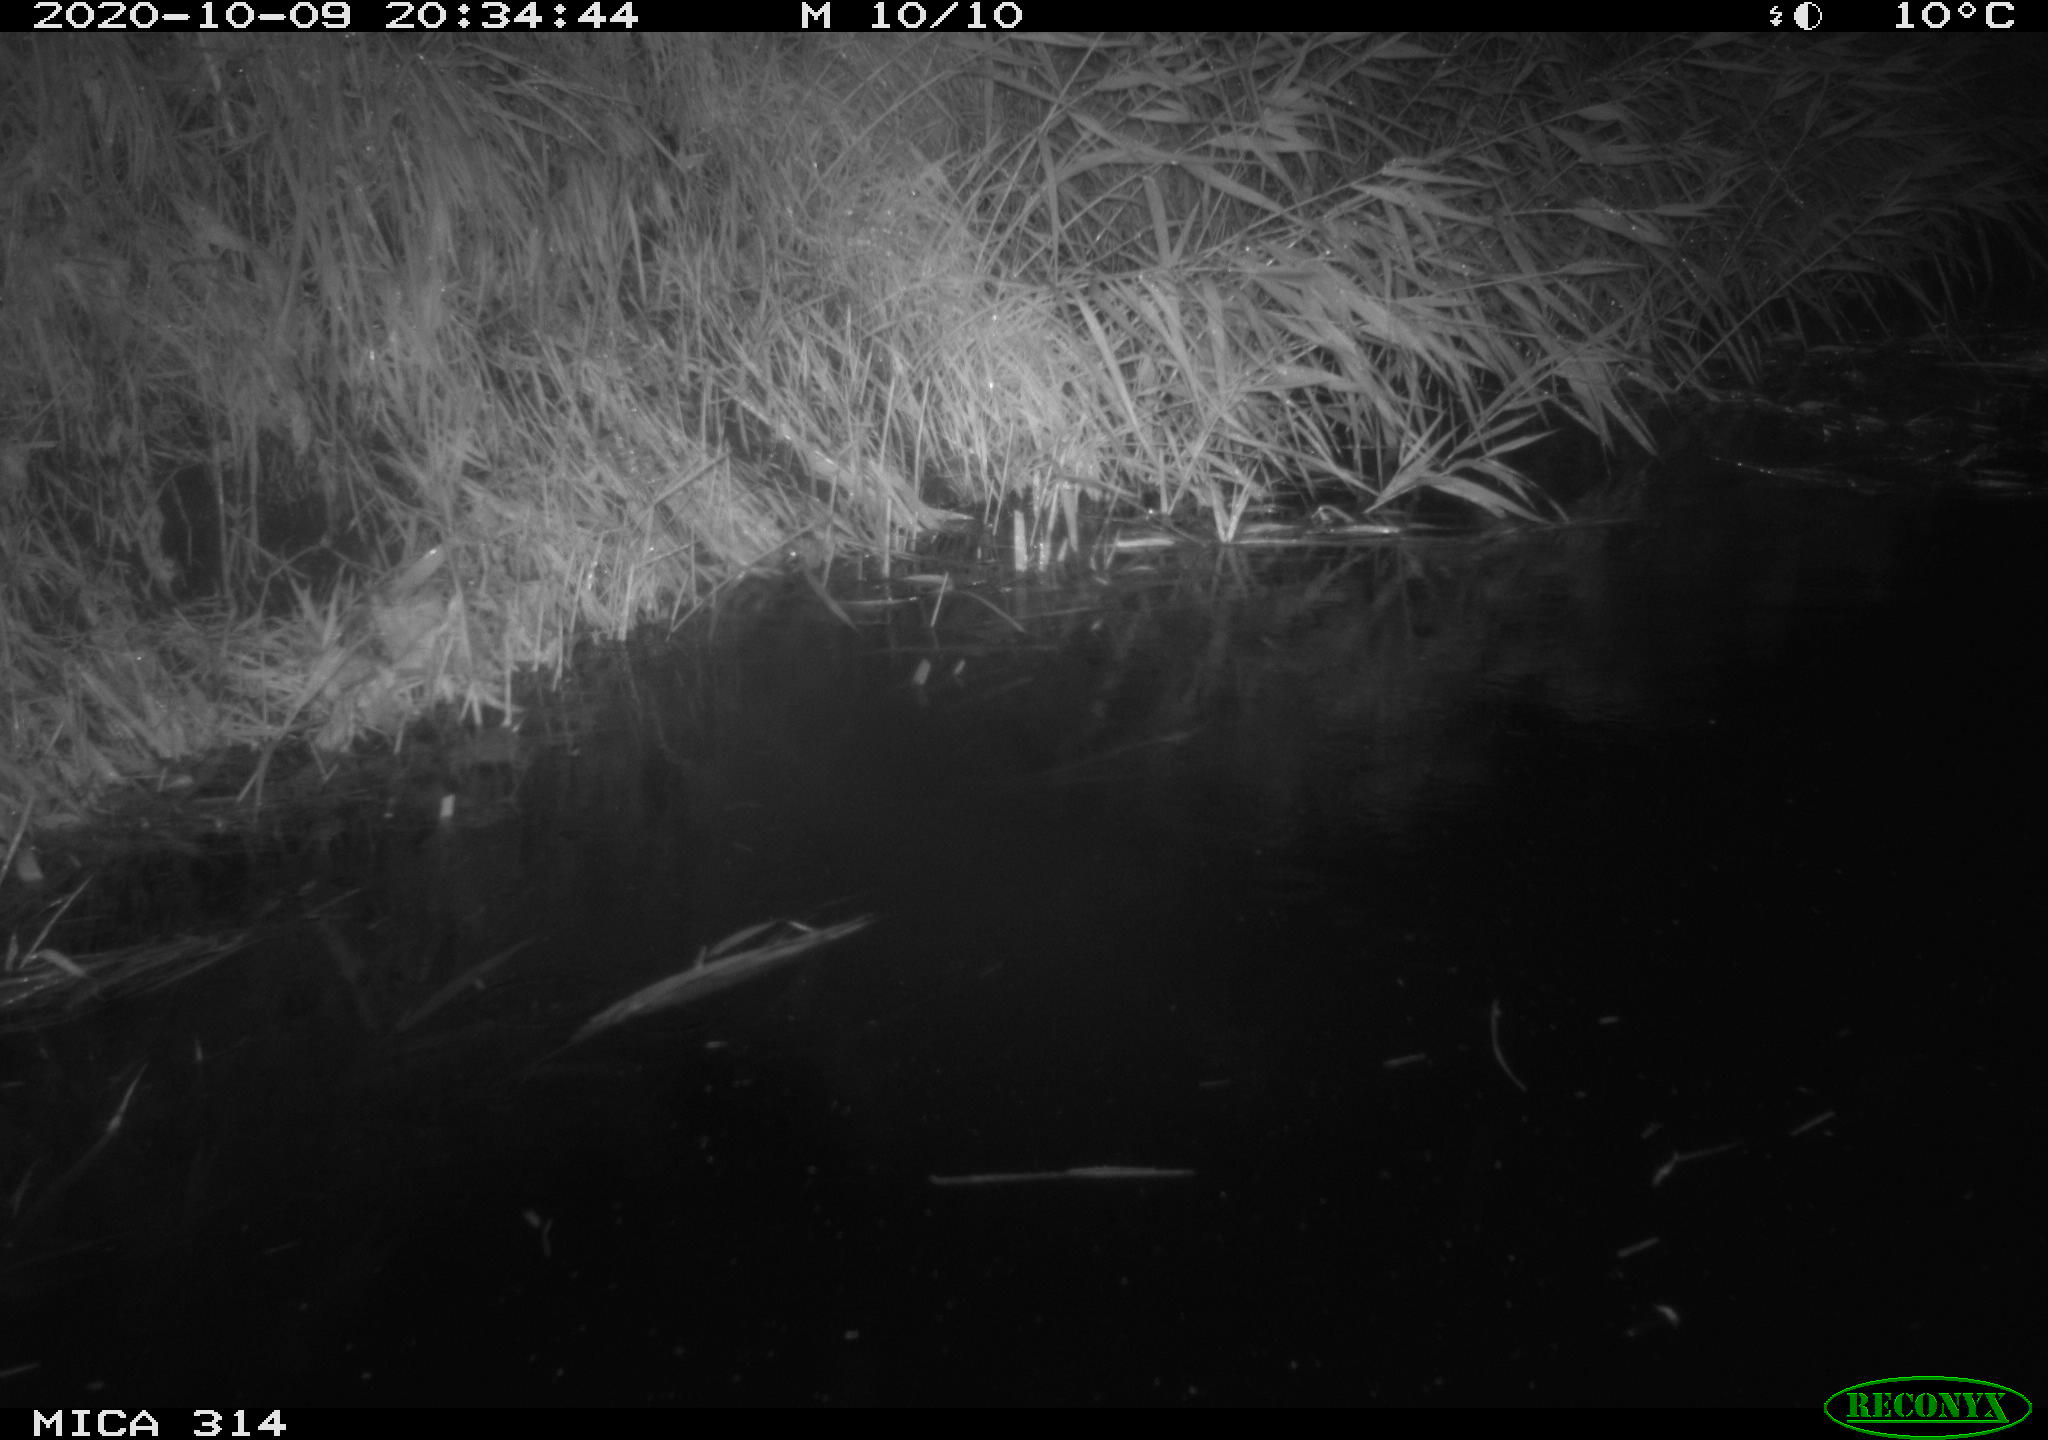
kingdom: Animalia
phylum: Chordata
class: Mammalia
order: Rodentia
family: Muridae
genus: Rattus
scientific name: Rattus norvegicus
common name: Brown rat
